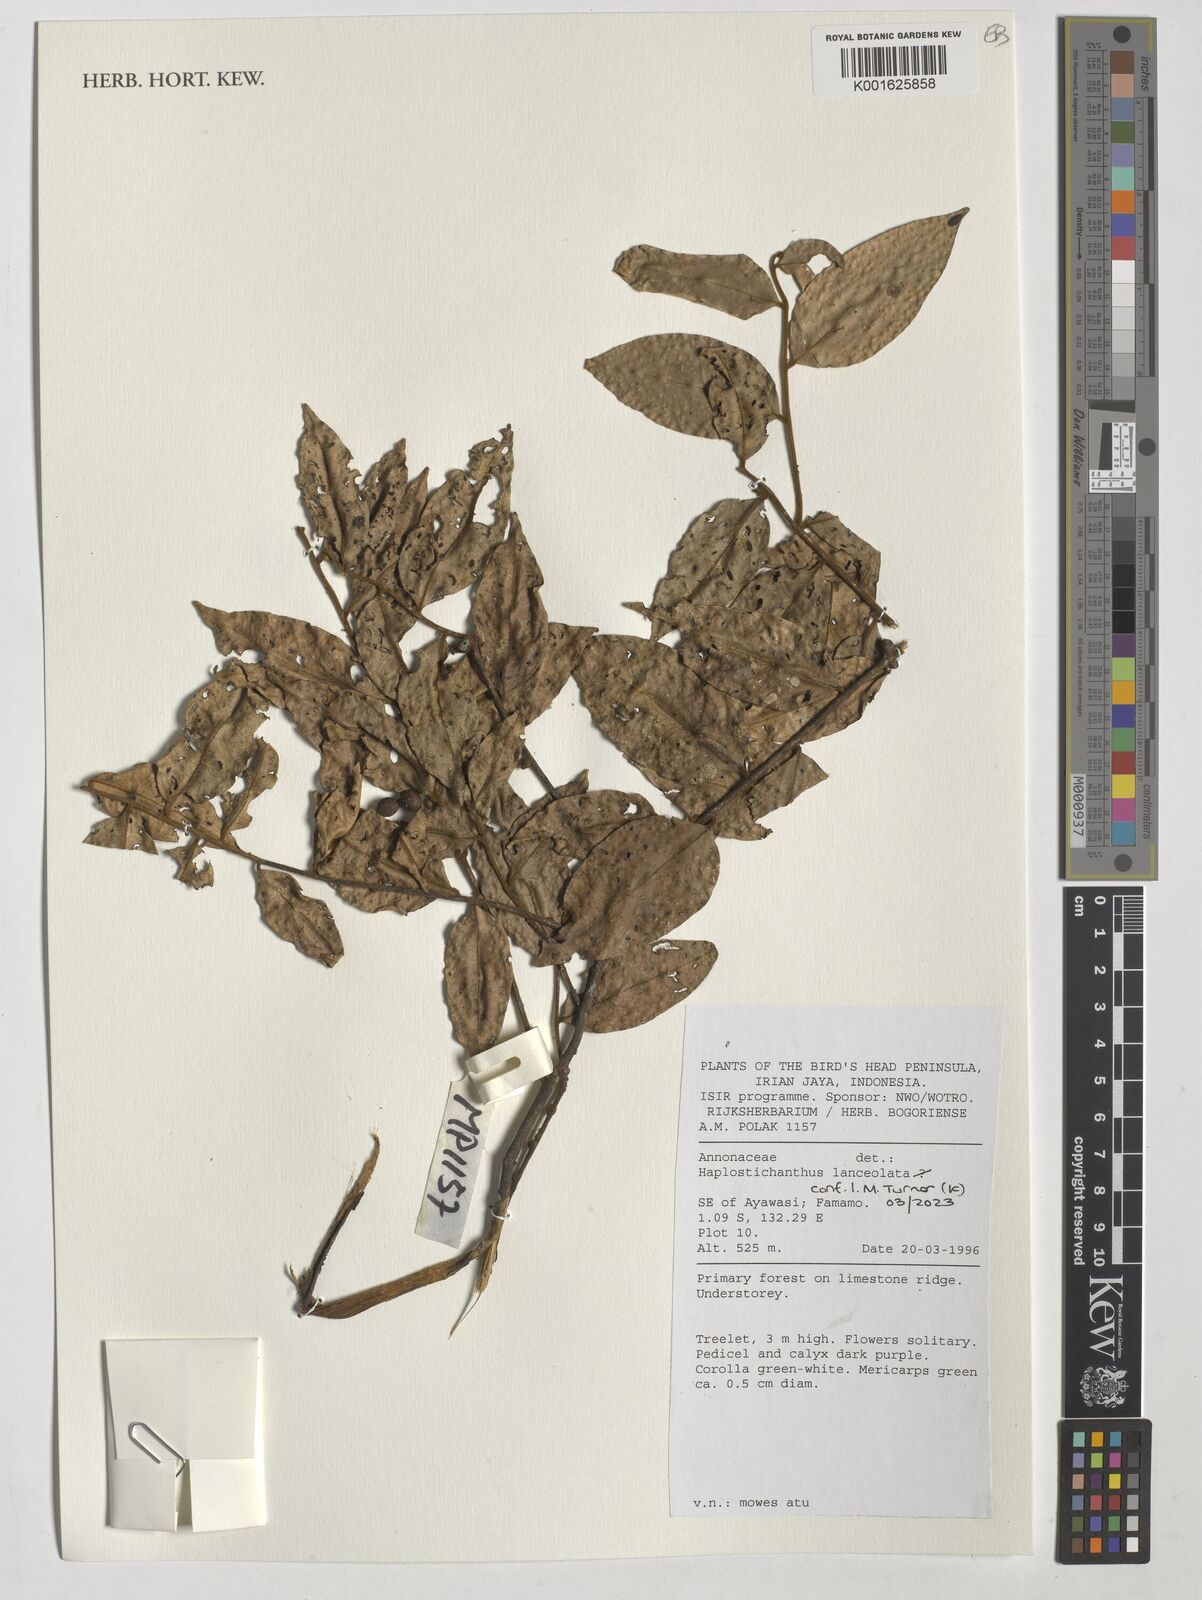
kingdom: Plantae
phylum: Tracheophyta
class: Magnoliopsida
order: Magnoliales
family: Annonaceae
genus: Haplostichanthus
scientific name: Haplostichanthus lanceolata
